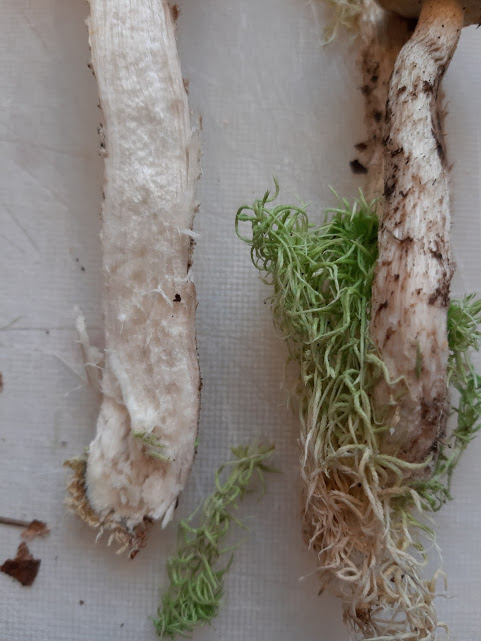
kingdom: Fungi
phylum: Basidiomycota
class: Agaricomycetes
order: Boletales
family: Boletaceae
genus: Leccinum
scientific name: Leccinum scabrum
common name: hvid skælrørhat
